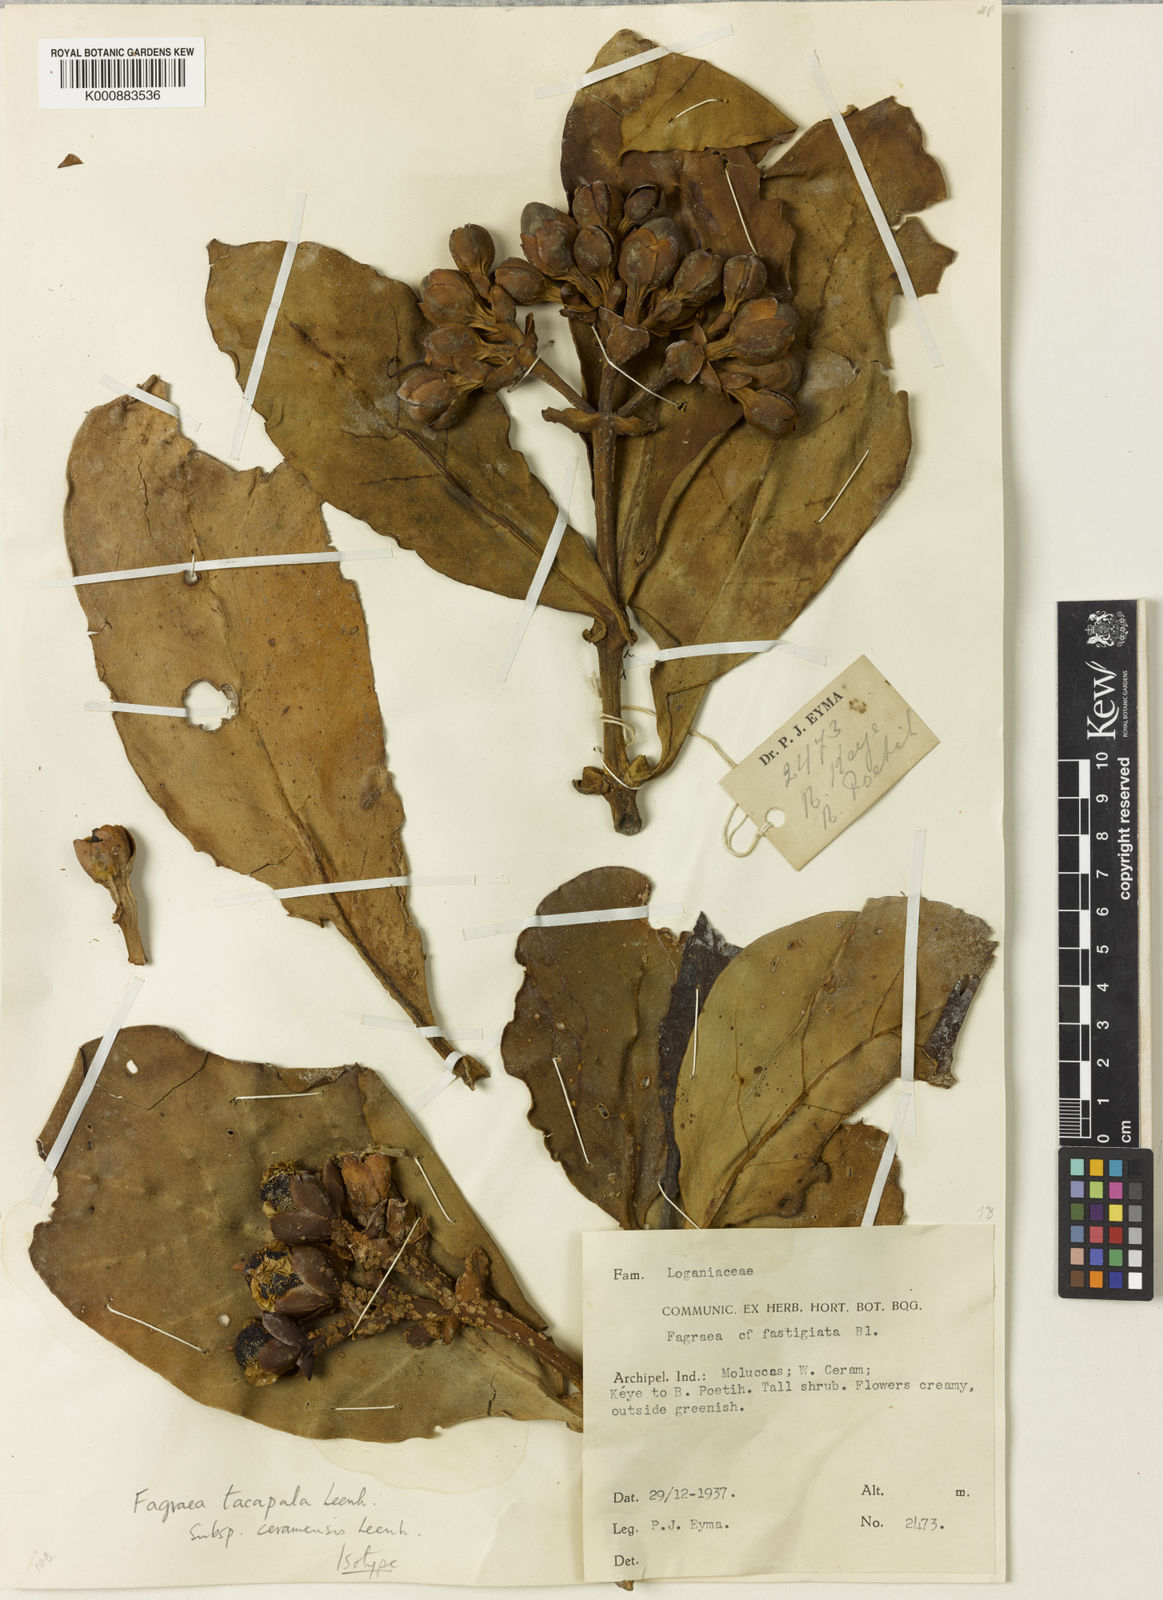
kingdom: Plantae
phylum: Tracheophyta
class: Magnoliopsida
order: Gentianales
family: Gentianaceae
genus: Fagraea
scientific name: Fagraea tacapala
